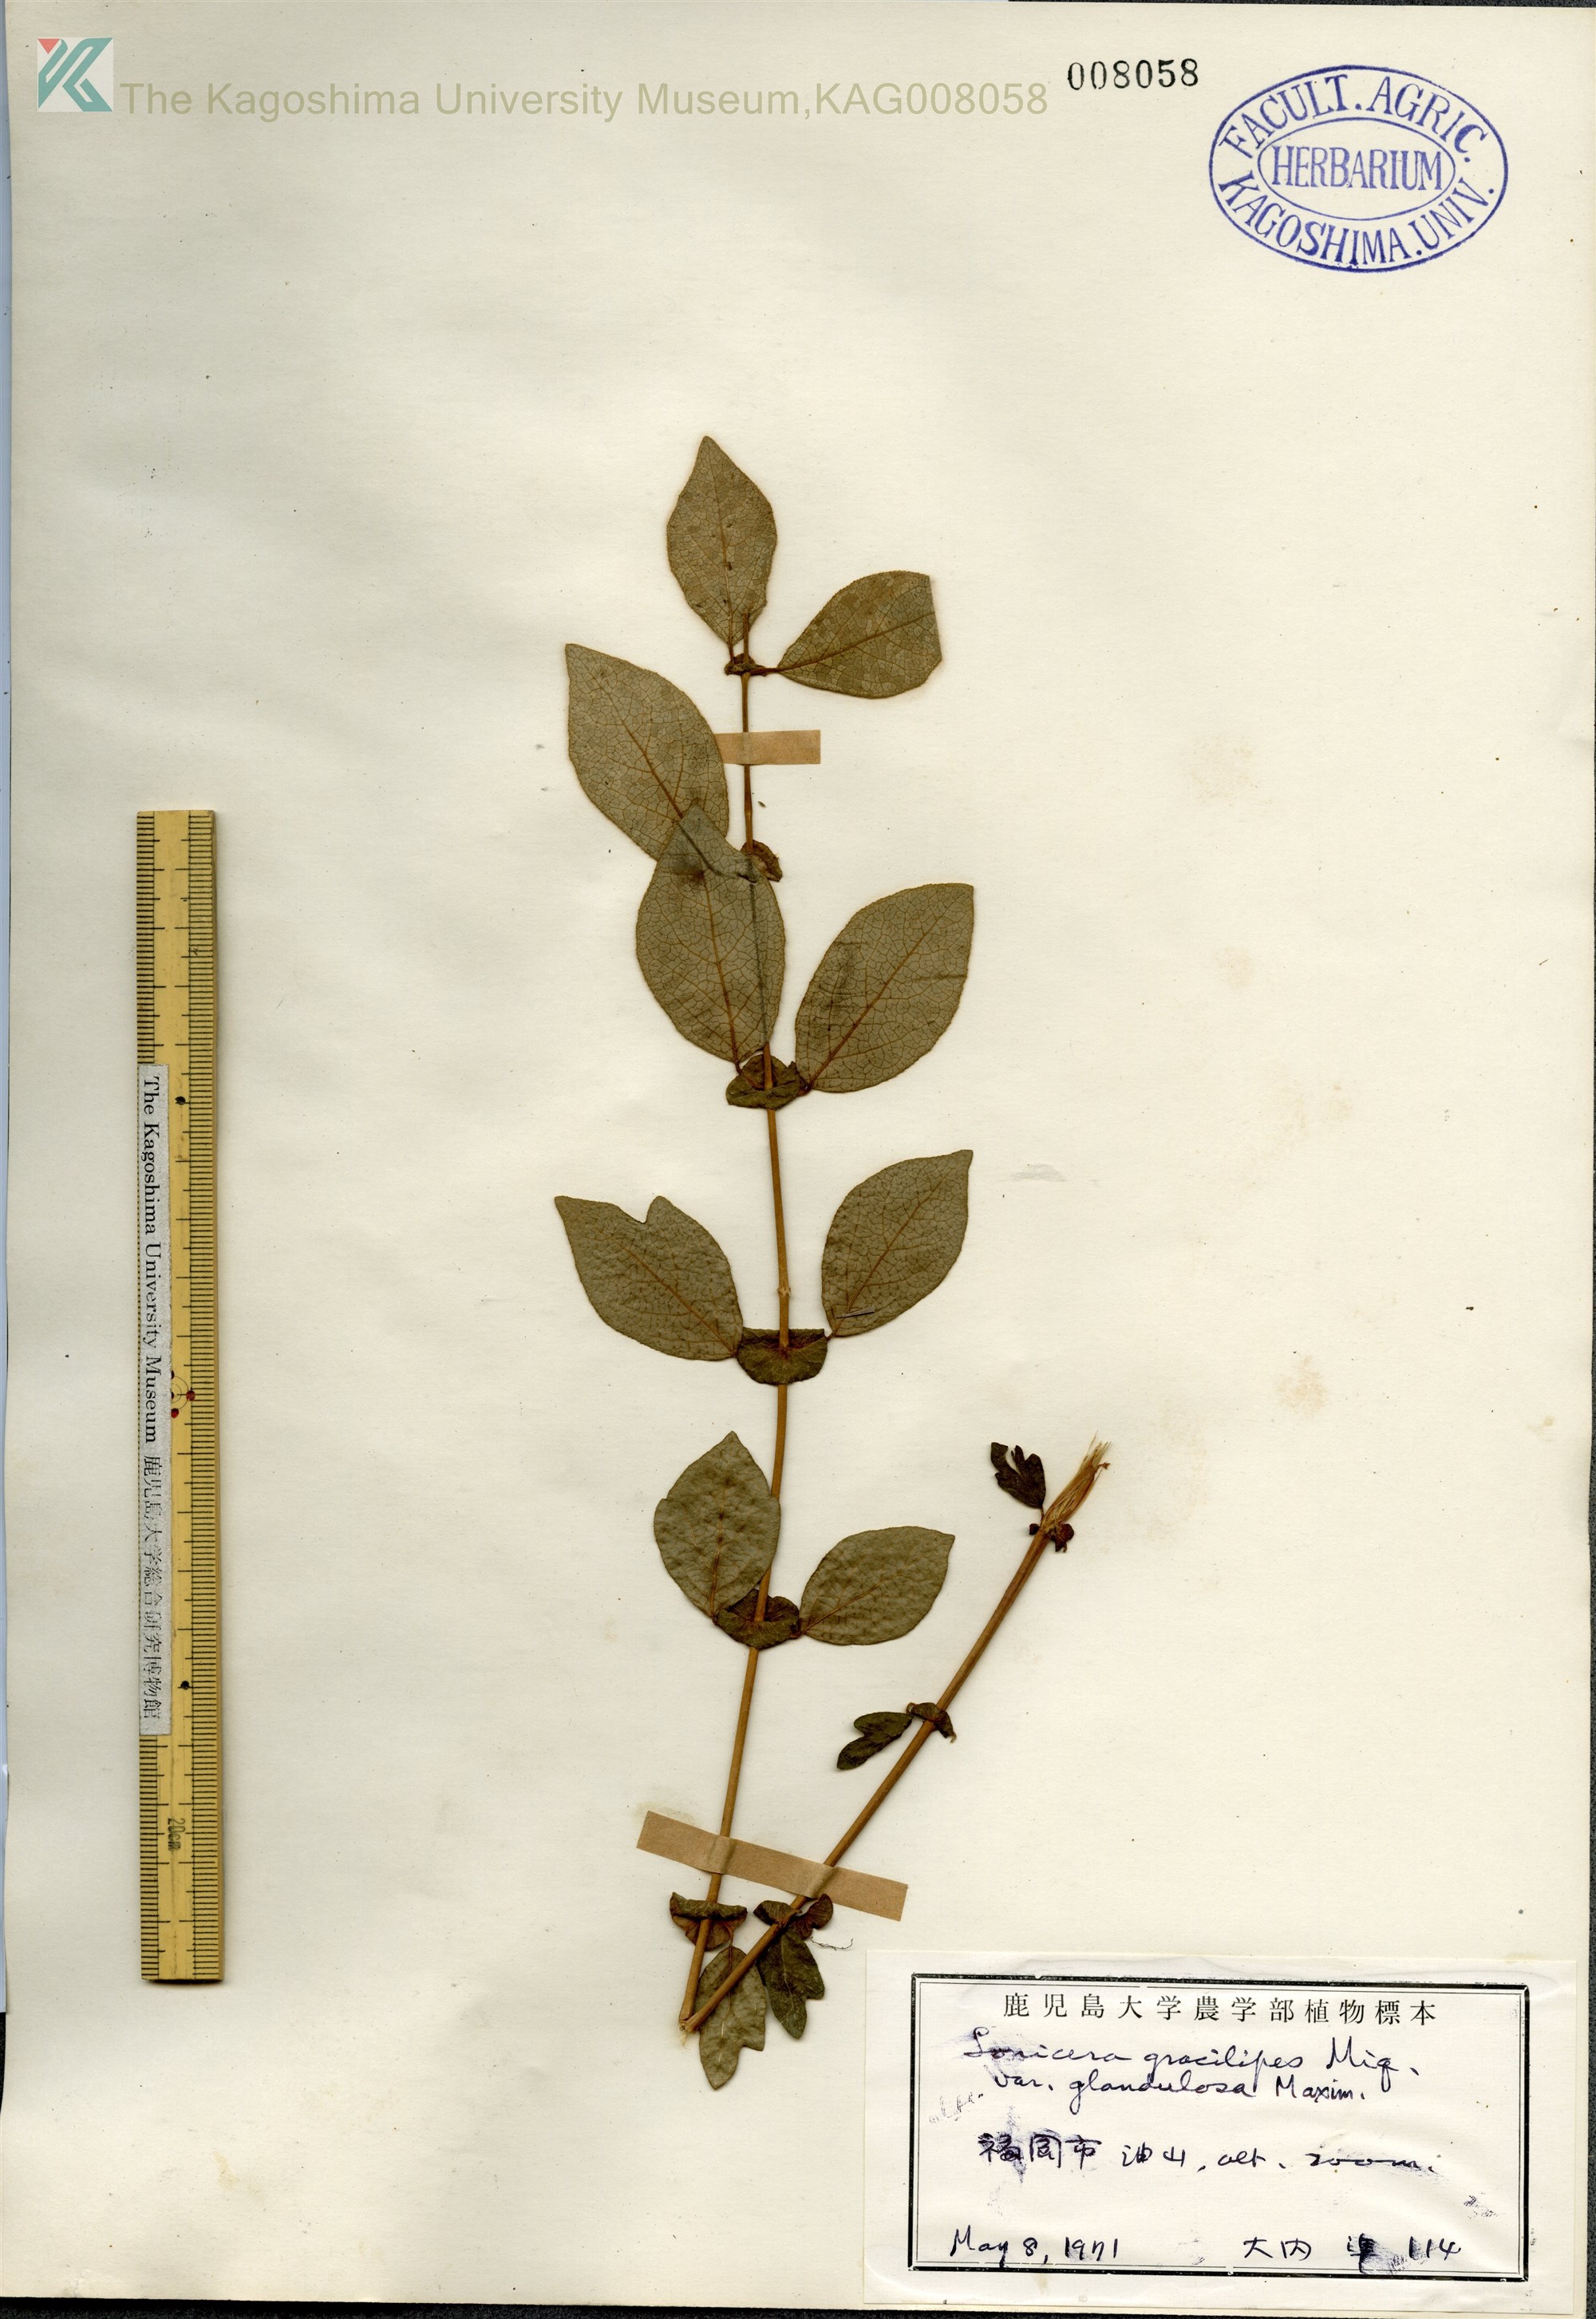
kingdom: Plantae
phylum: Tracheophyta
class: Magnoliopsida
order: Dipsacales
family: Caprifoliaceae
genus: Lonicera
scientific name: Lonicera gracilipes
